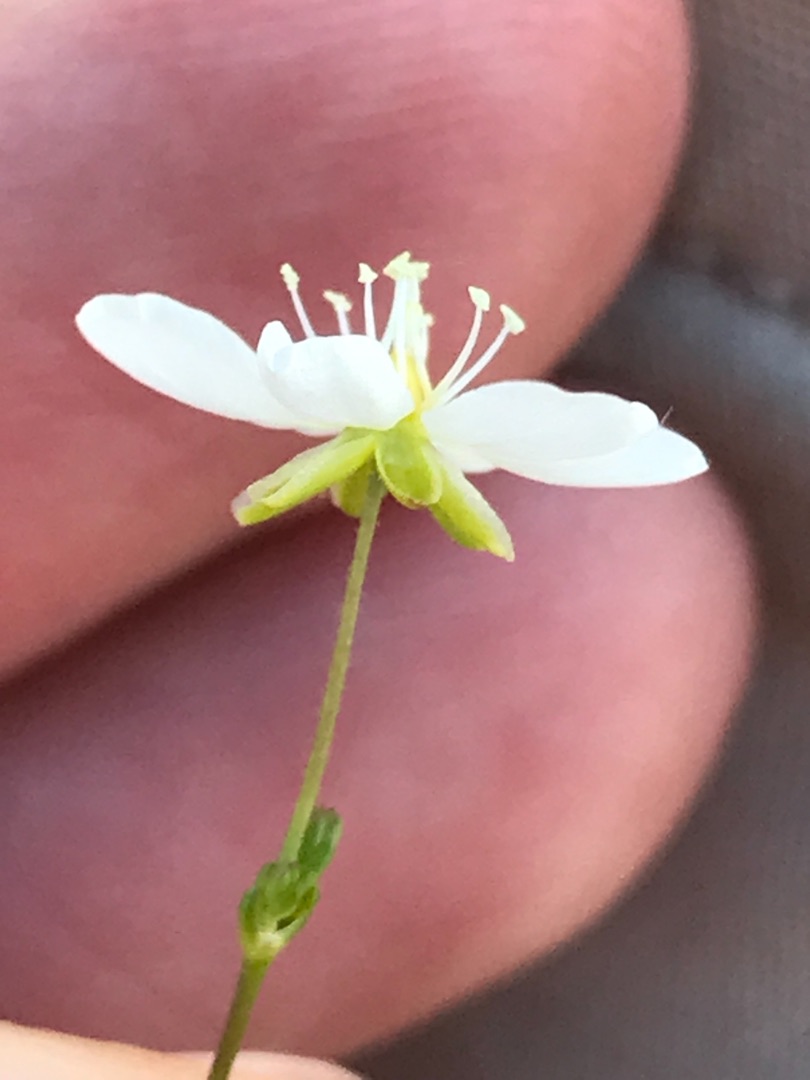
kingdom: Plantae
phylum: Tracheophyta
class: Magnoliopsida
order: Caryophyllales
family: Caryophyllaceae
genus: Sagina
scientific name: Sagina nodosa
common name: Knude-firling
